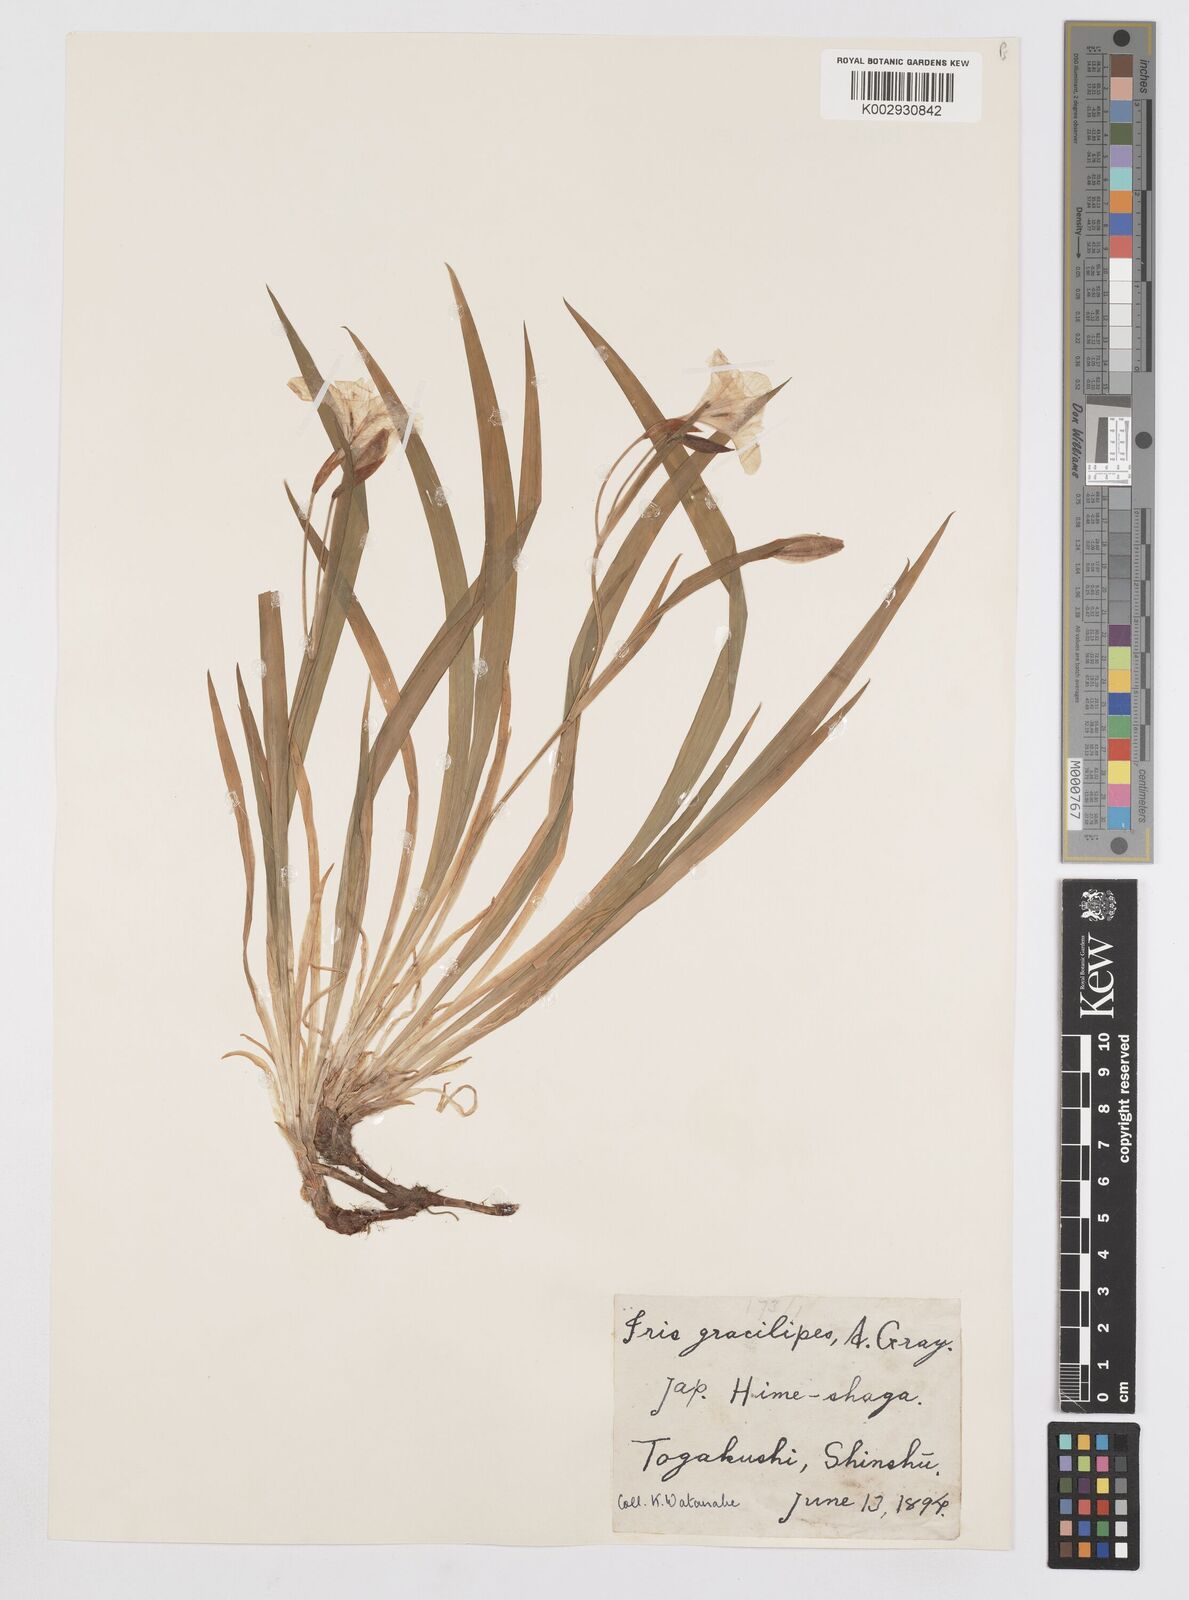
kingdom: Plantae
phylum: Tracheophyta
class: Liliopsida
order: Asparagales
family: Iridaceae
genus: Iris
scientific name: Iris gracilipes
